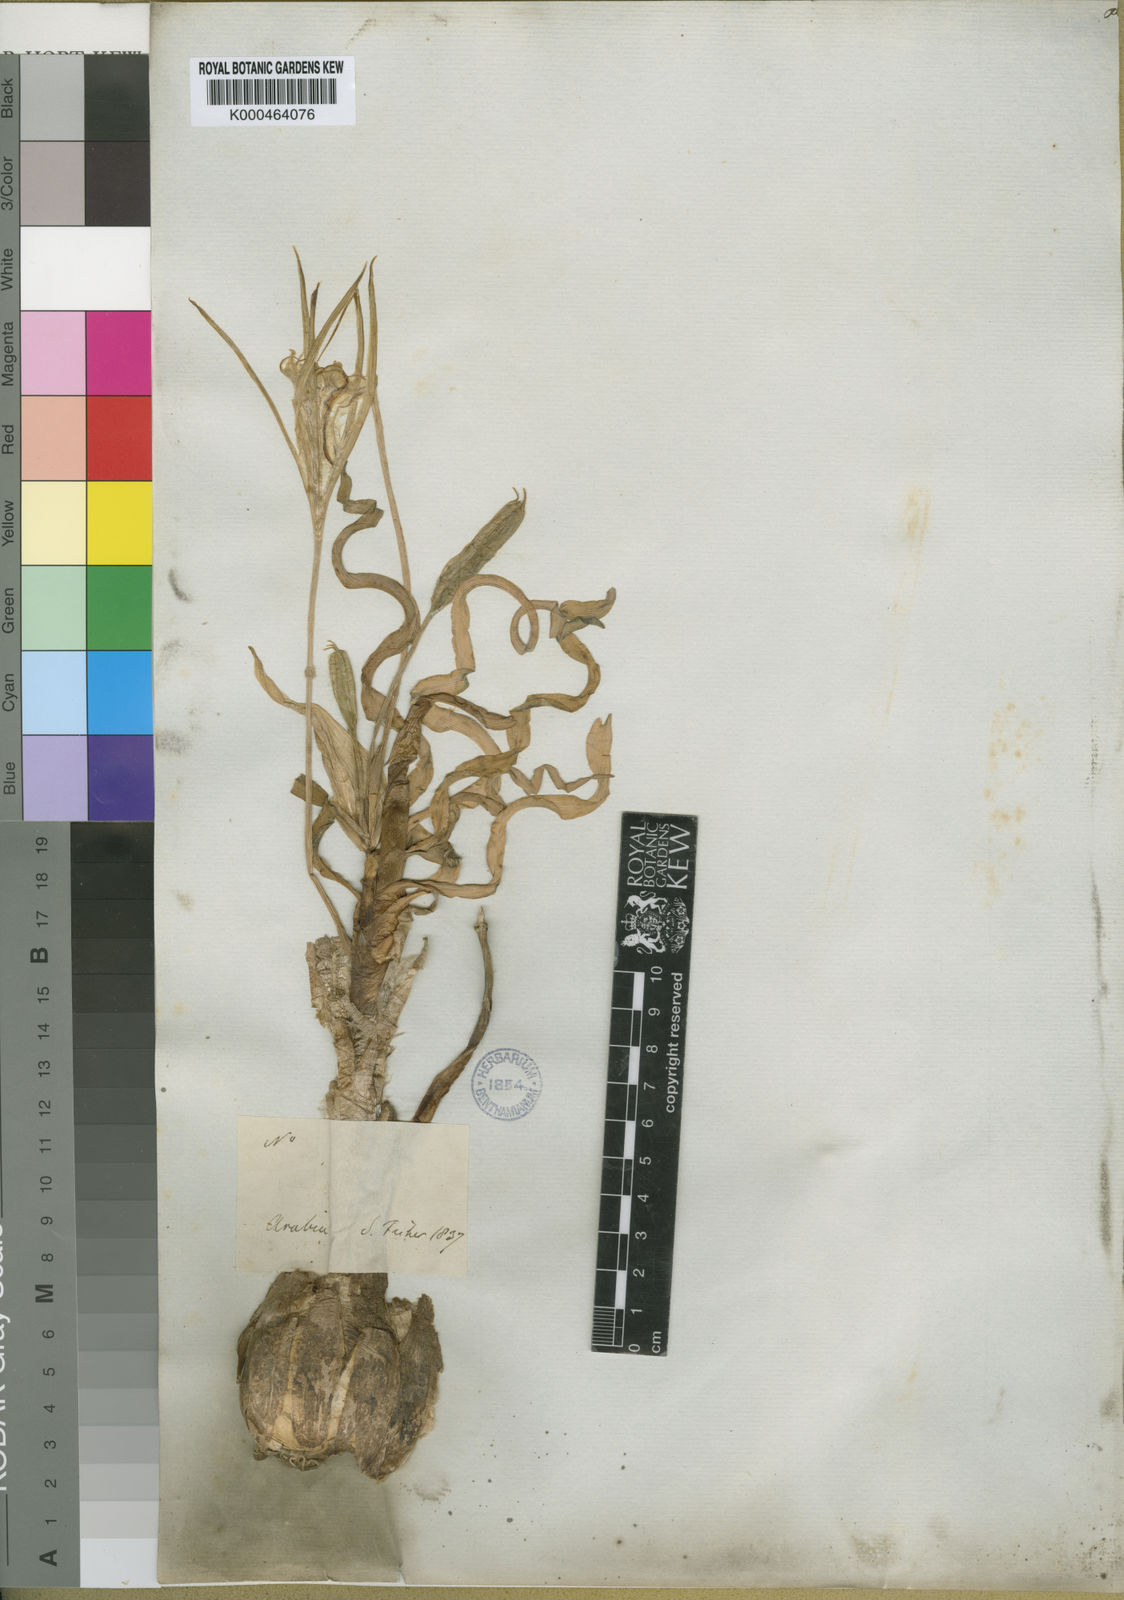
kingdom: Plantae
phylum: Tracheophyta
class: Liliopsida
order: Asparagales
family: Amaryllidaceae
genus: Pancratium
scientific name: Pancratium tortuosum
